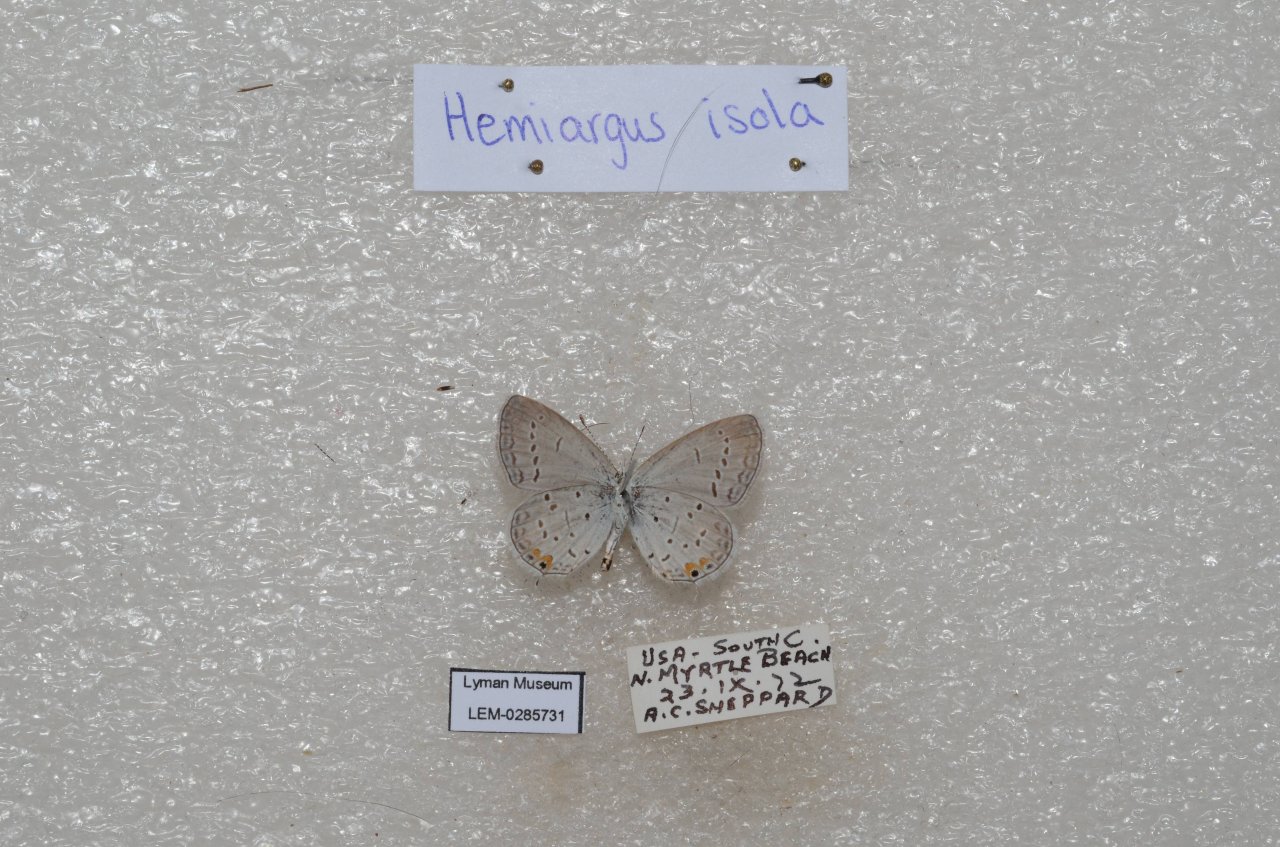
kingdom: Animalia
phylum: Arthropoda
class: Insecta
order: Lepidoptera
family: Lycaenidae
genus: Elkalyce
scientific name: Elkalyce comyntas
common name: Eastern Tailed-Blue
